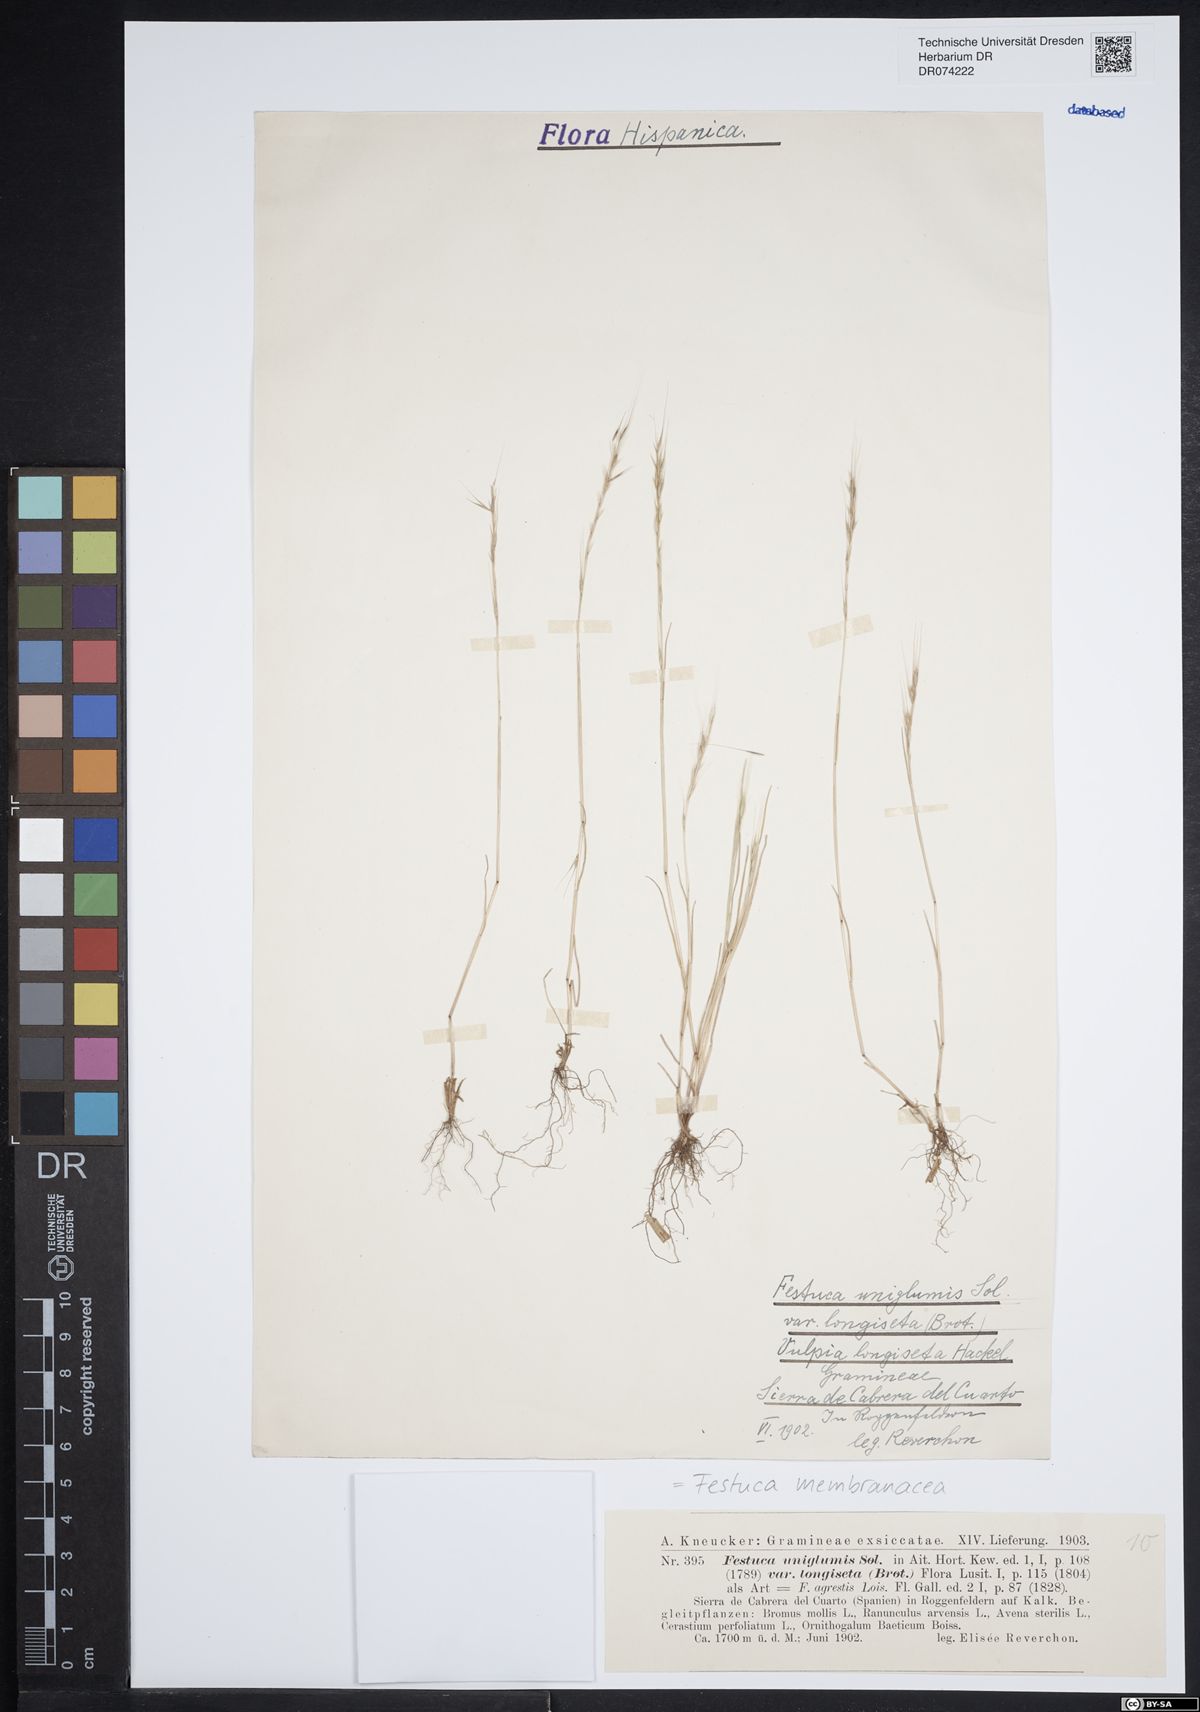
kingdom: Plantae
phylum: Tracheophyta
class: Liliopsida
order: Poales
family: Poaceae
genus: Festuca
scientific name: Festuca membranacea
